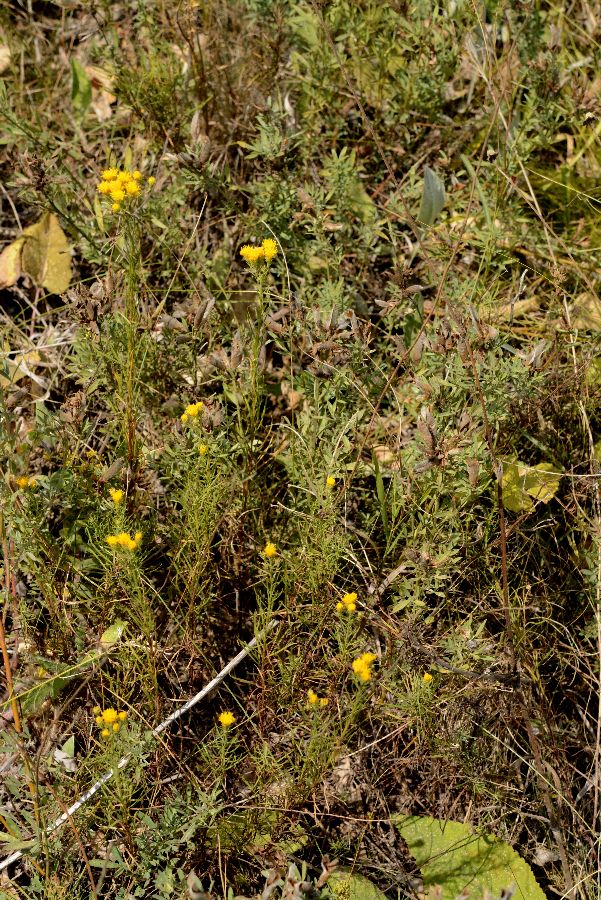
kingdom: Plantae
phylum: Tracheophyta
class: Magnoliopsida
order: Asterales
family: Asteraceae
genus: Galatella
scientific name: Galatella linosyris
